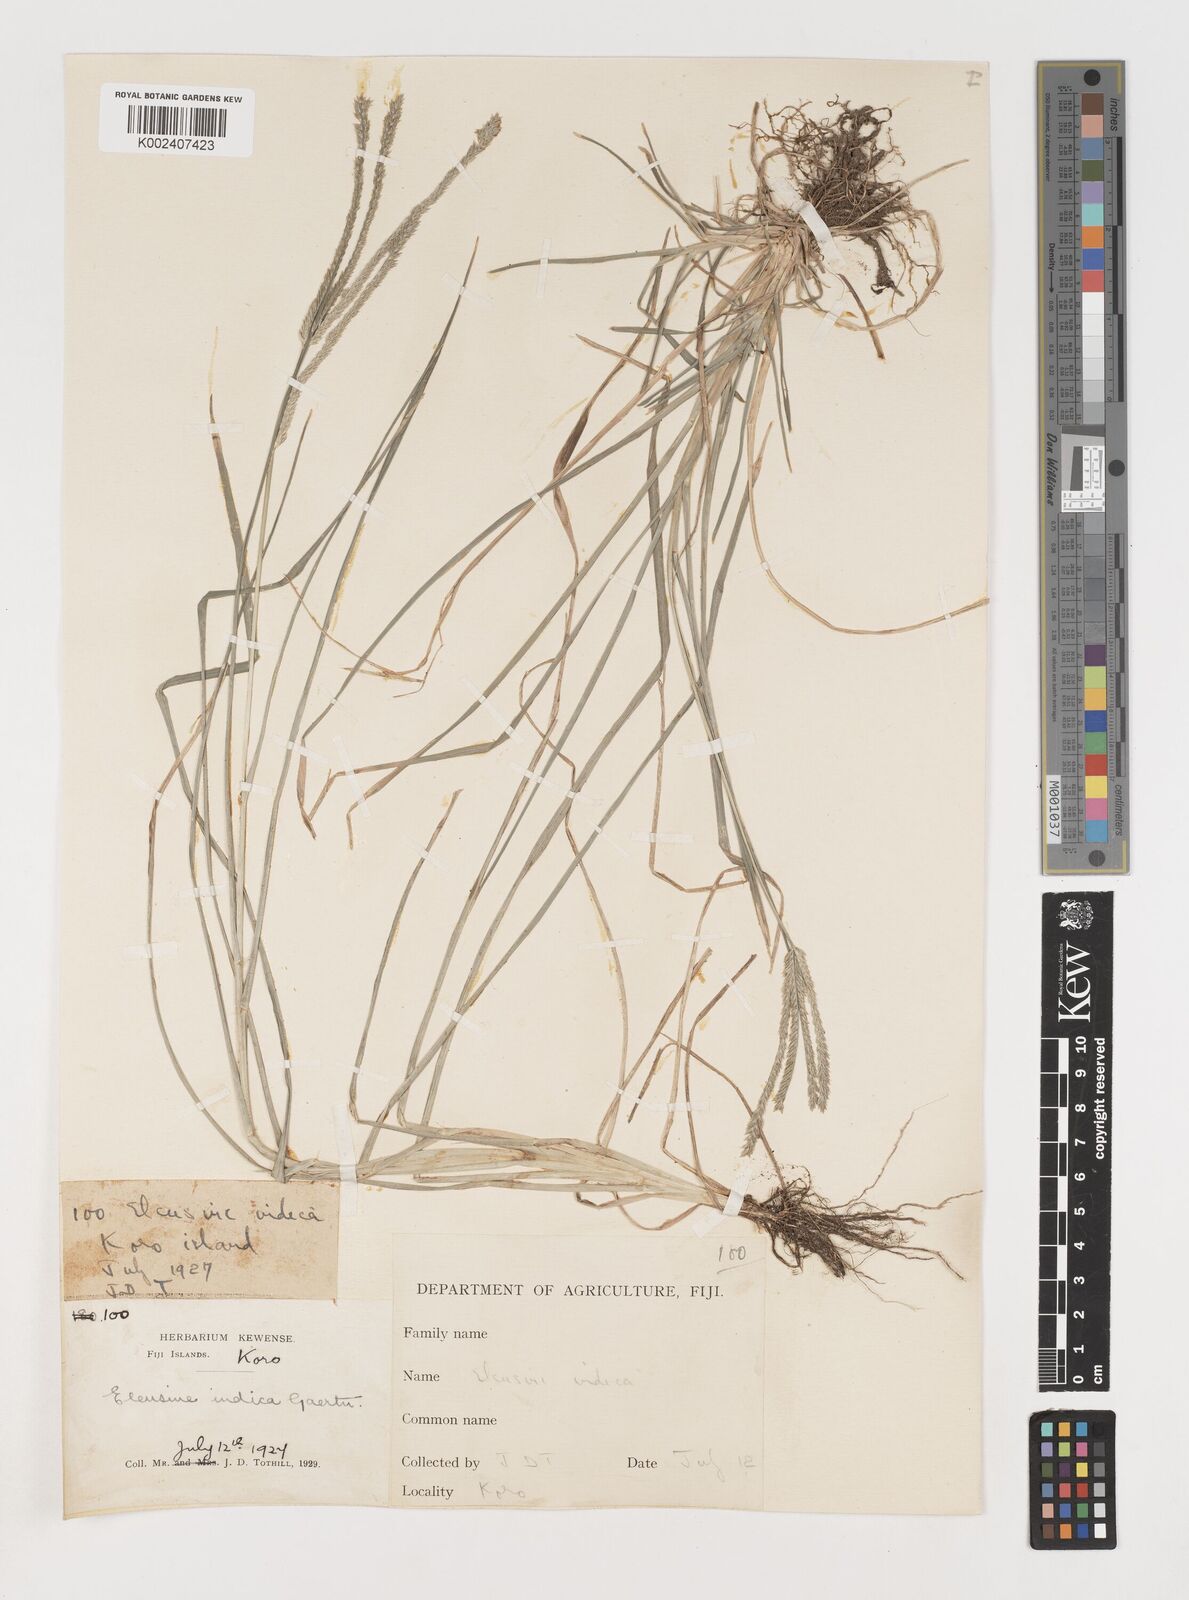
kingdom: Plantae
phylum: Tracheophyta
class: Liliopsida
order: Poales
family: Poaceae
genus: Eleusine
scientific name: Eleusine indica
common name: Yard-grass
